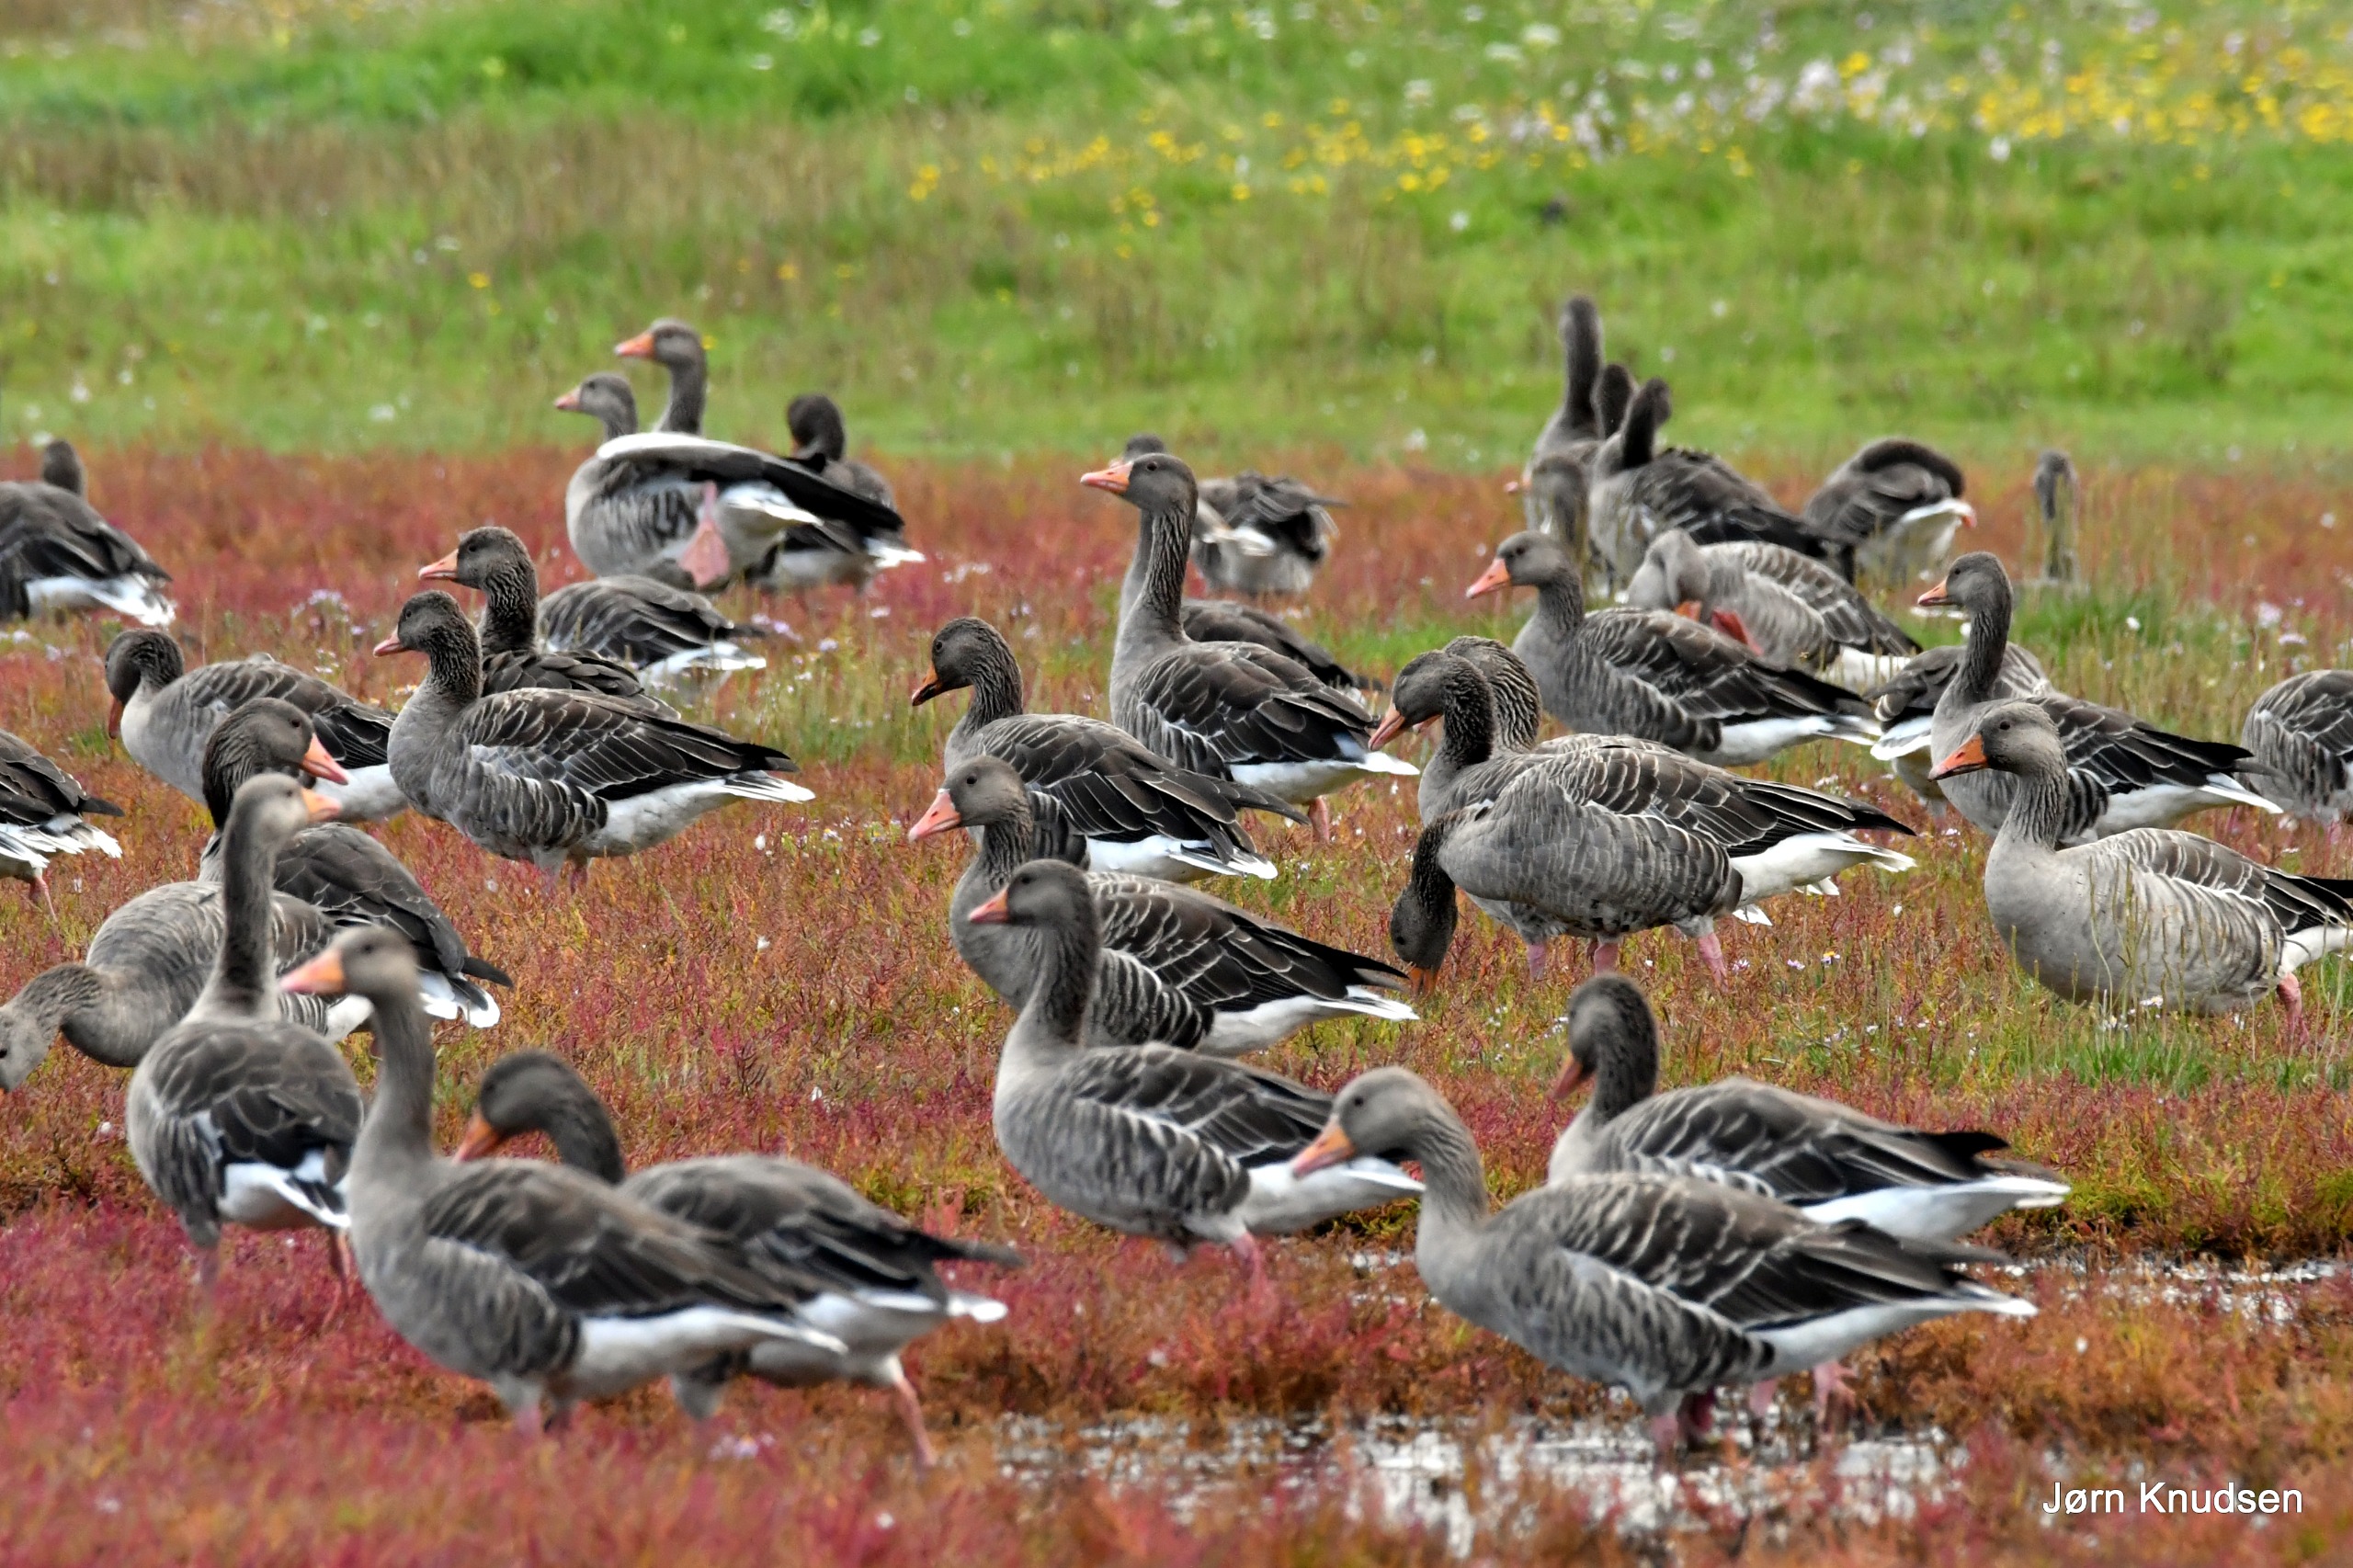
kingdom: Animalia
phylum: Chordata
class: Aves
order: Anseriformes
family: Anatidae
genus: Anser
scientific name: Anser anser
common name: Grågås
